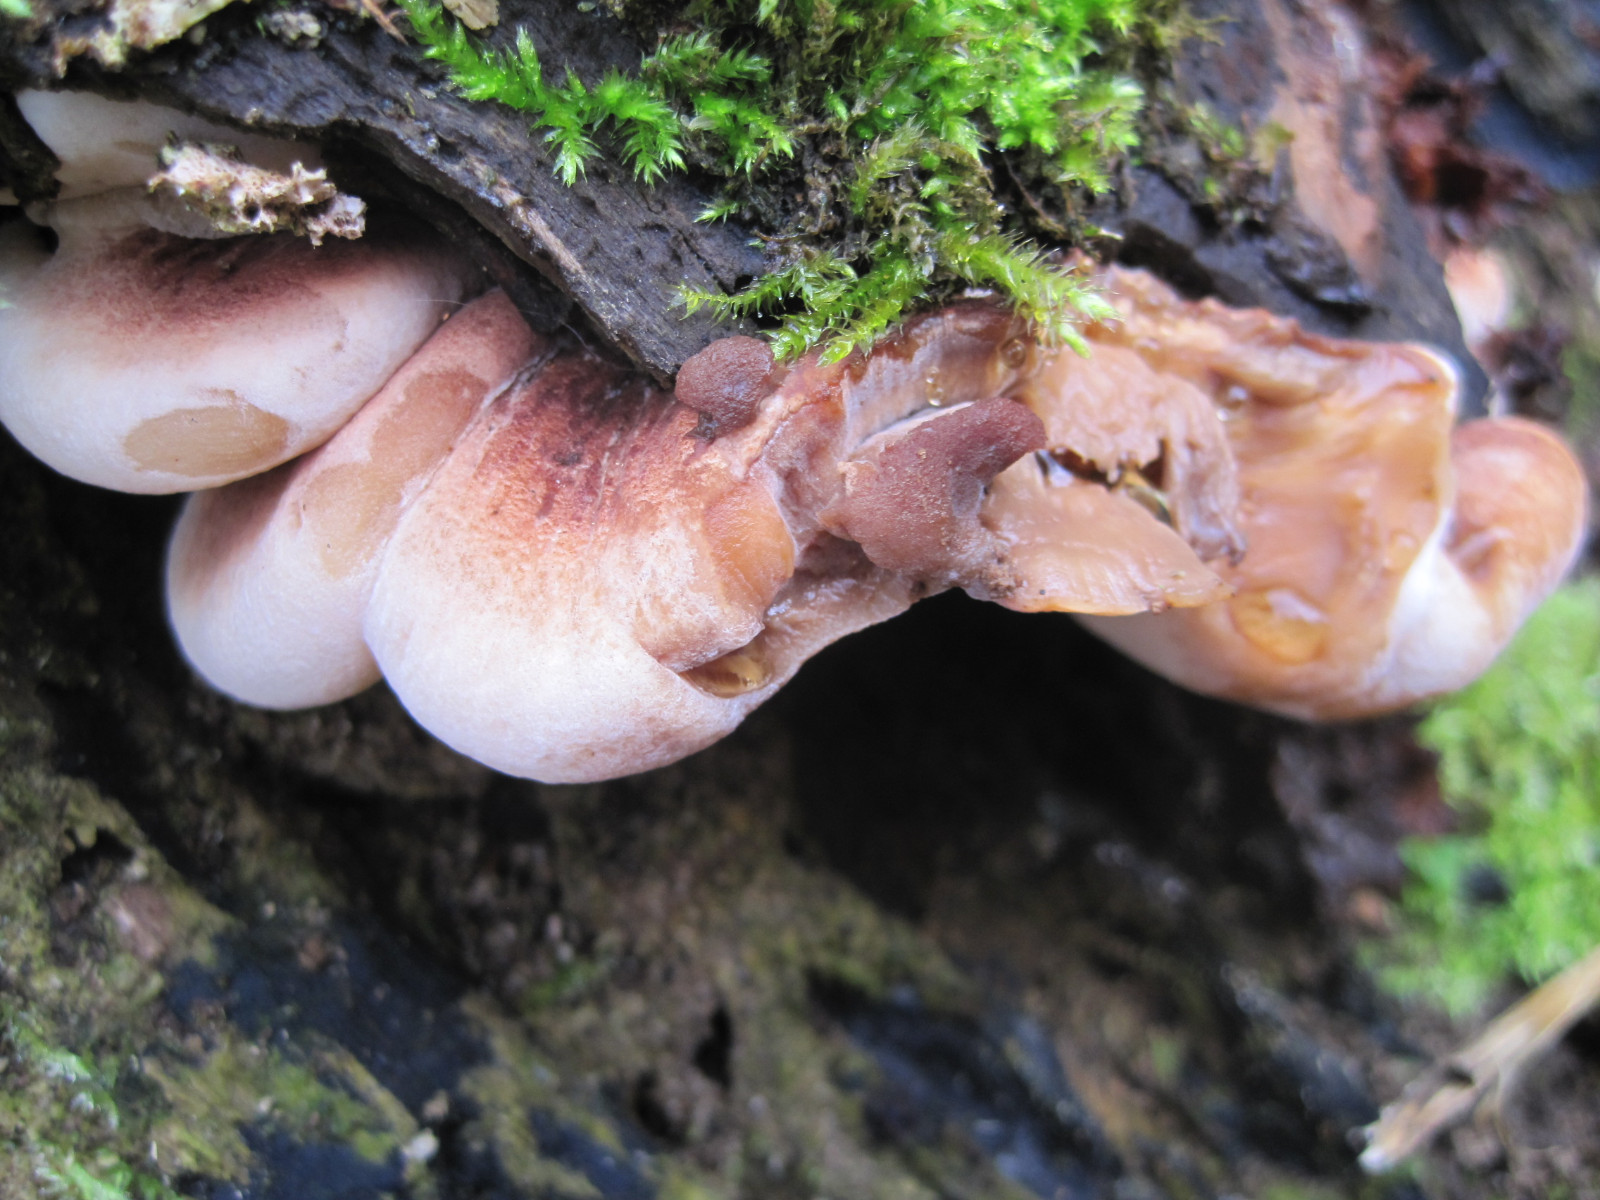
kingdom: Fungi
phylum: Basidiomycota
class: Agaricomycetes
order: Polyporales
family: Ischnodermataceae
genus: Ischnoderma
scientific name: Ischnoderma resinosum
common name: løv-tjæreporesvamp
